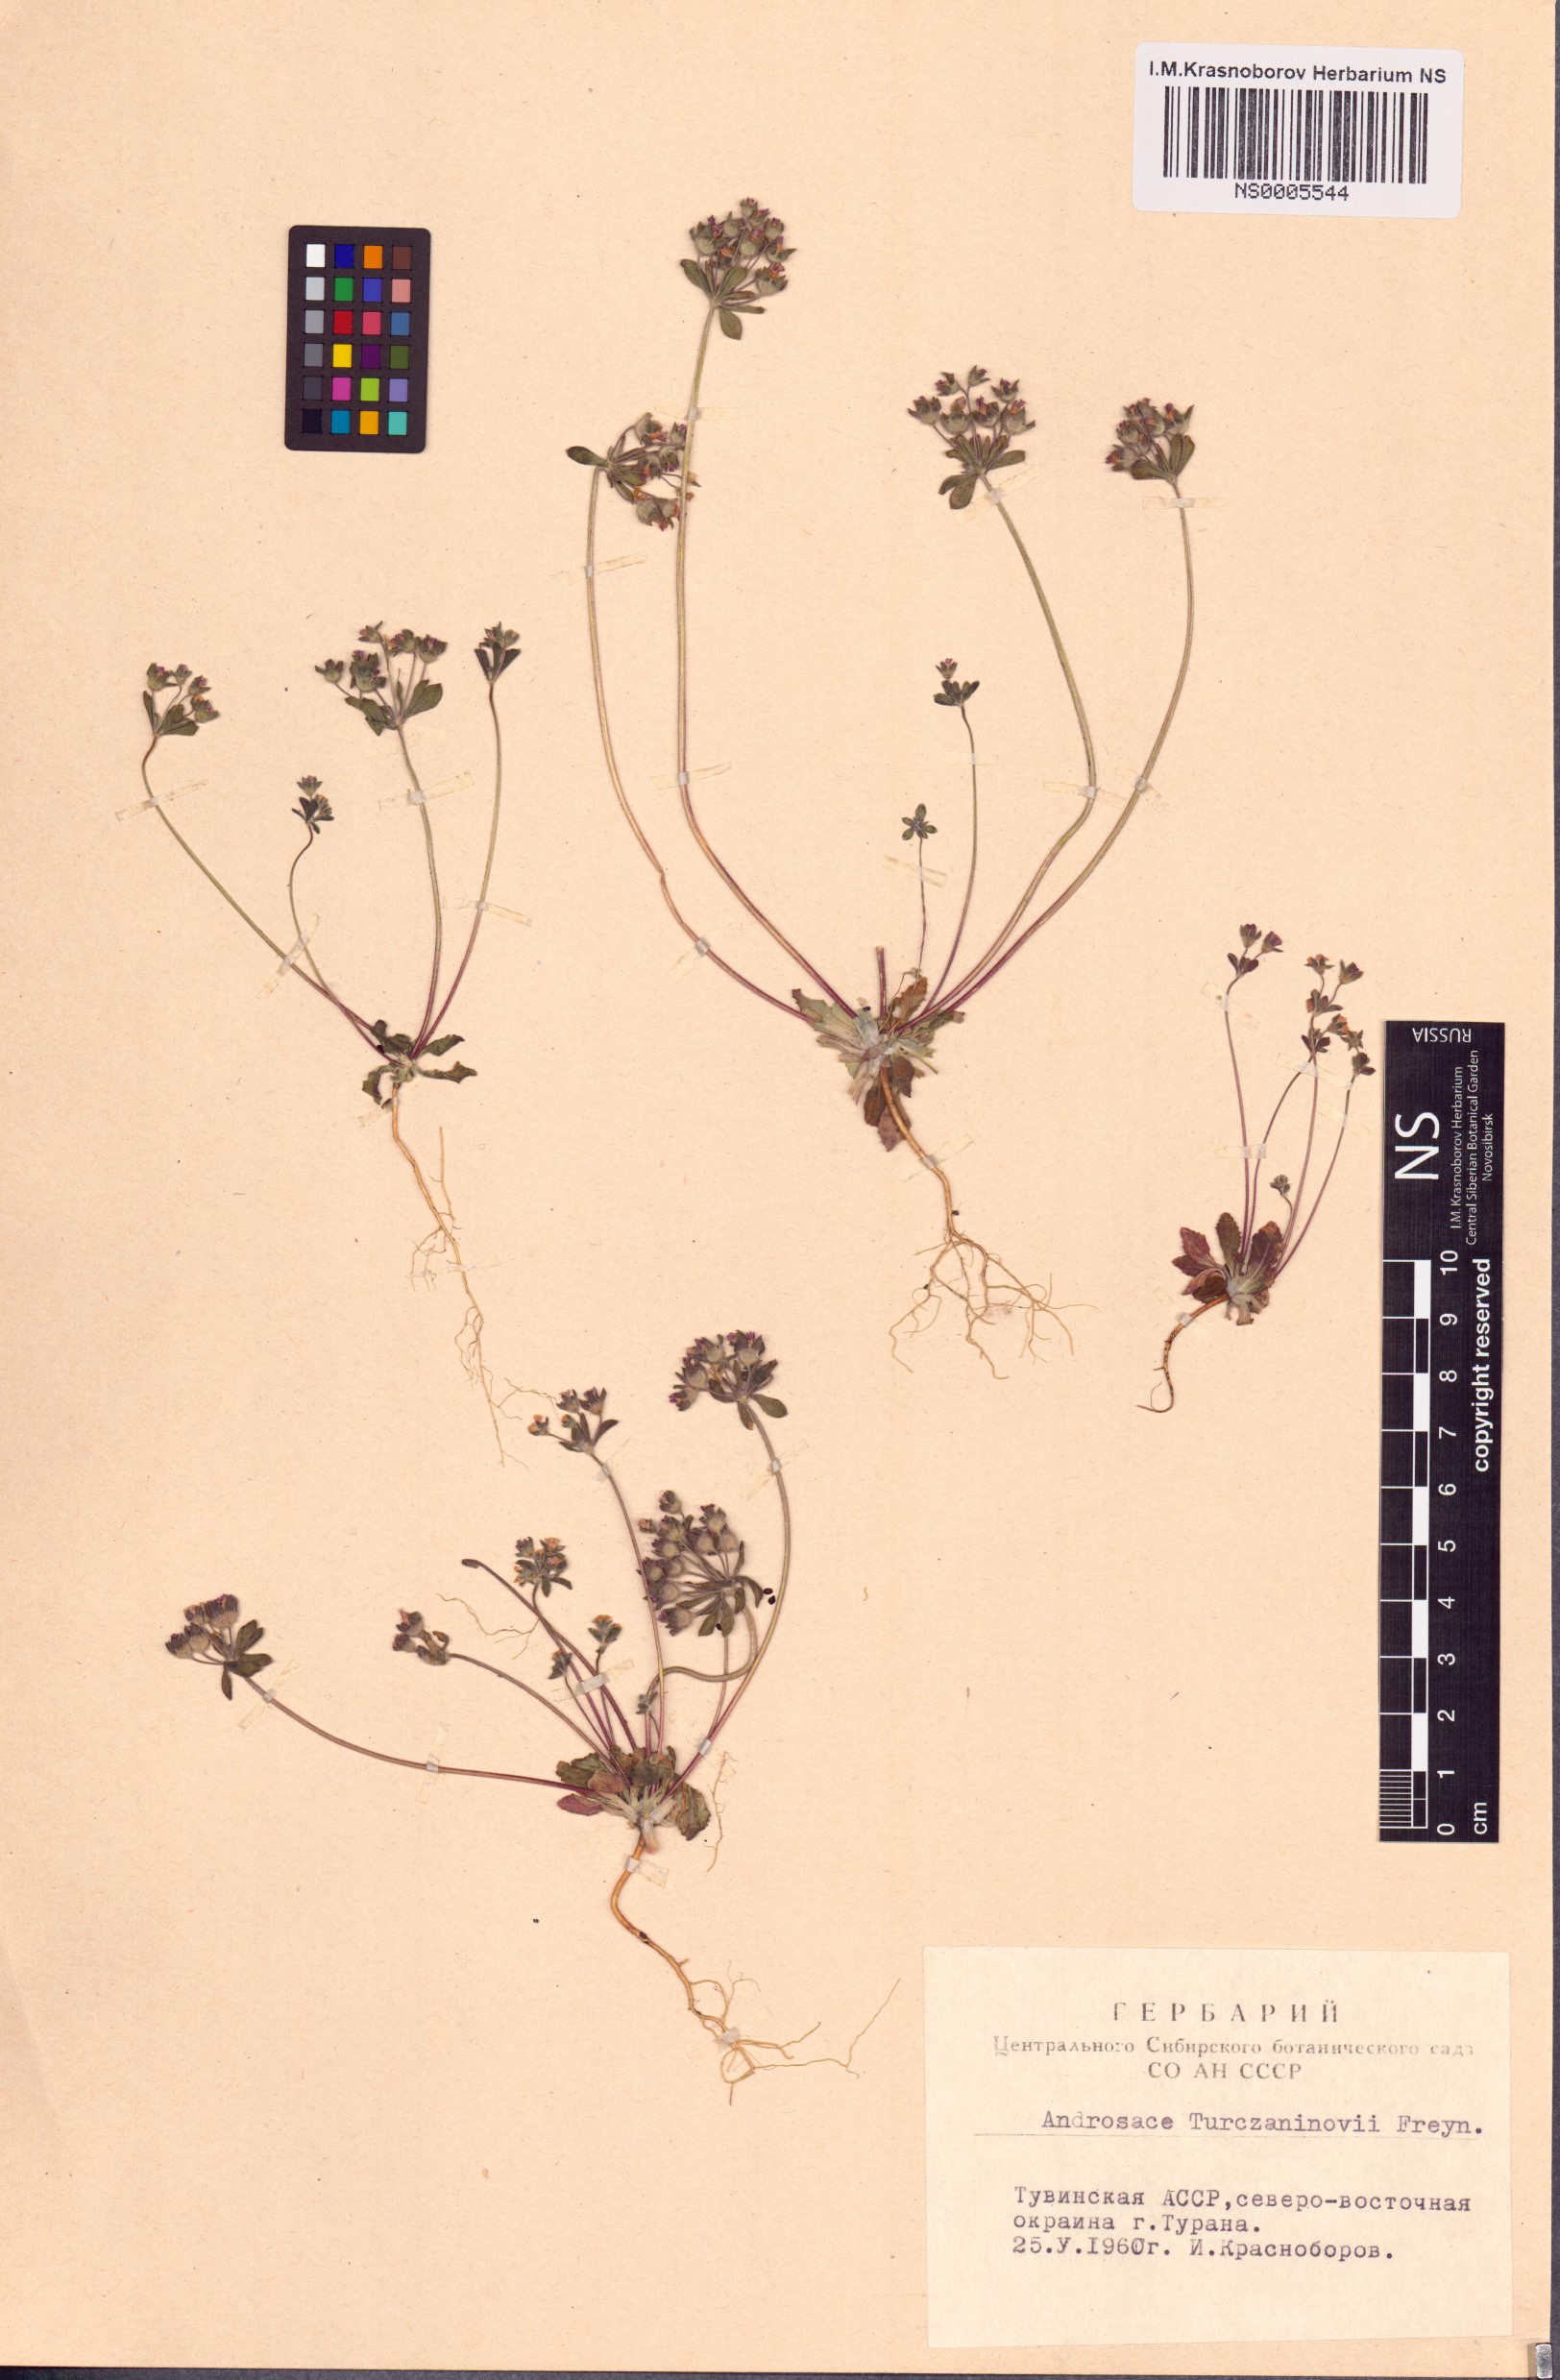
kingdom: Plantae
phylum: Tracheophyta
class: Magnoliopsida
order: Ericales
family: Primulaceae
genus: Androsace
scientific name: Androsace maxima
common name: Annual androsace
